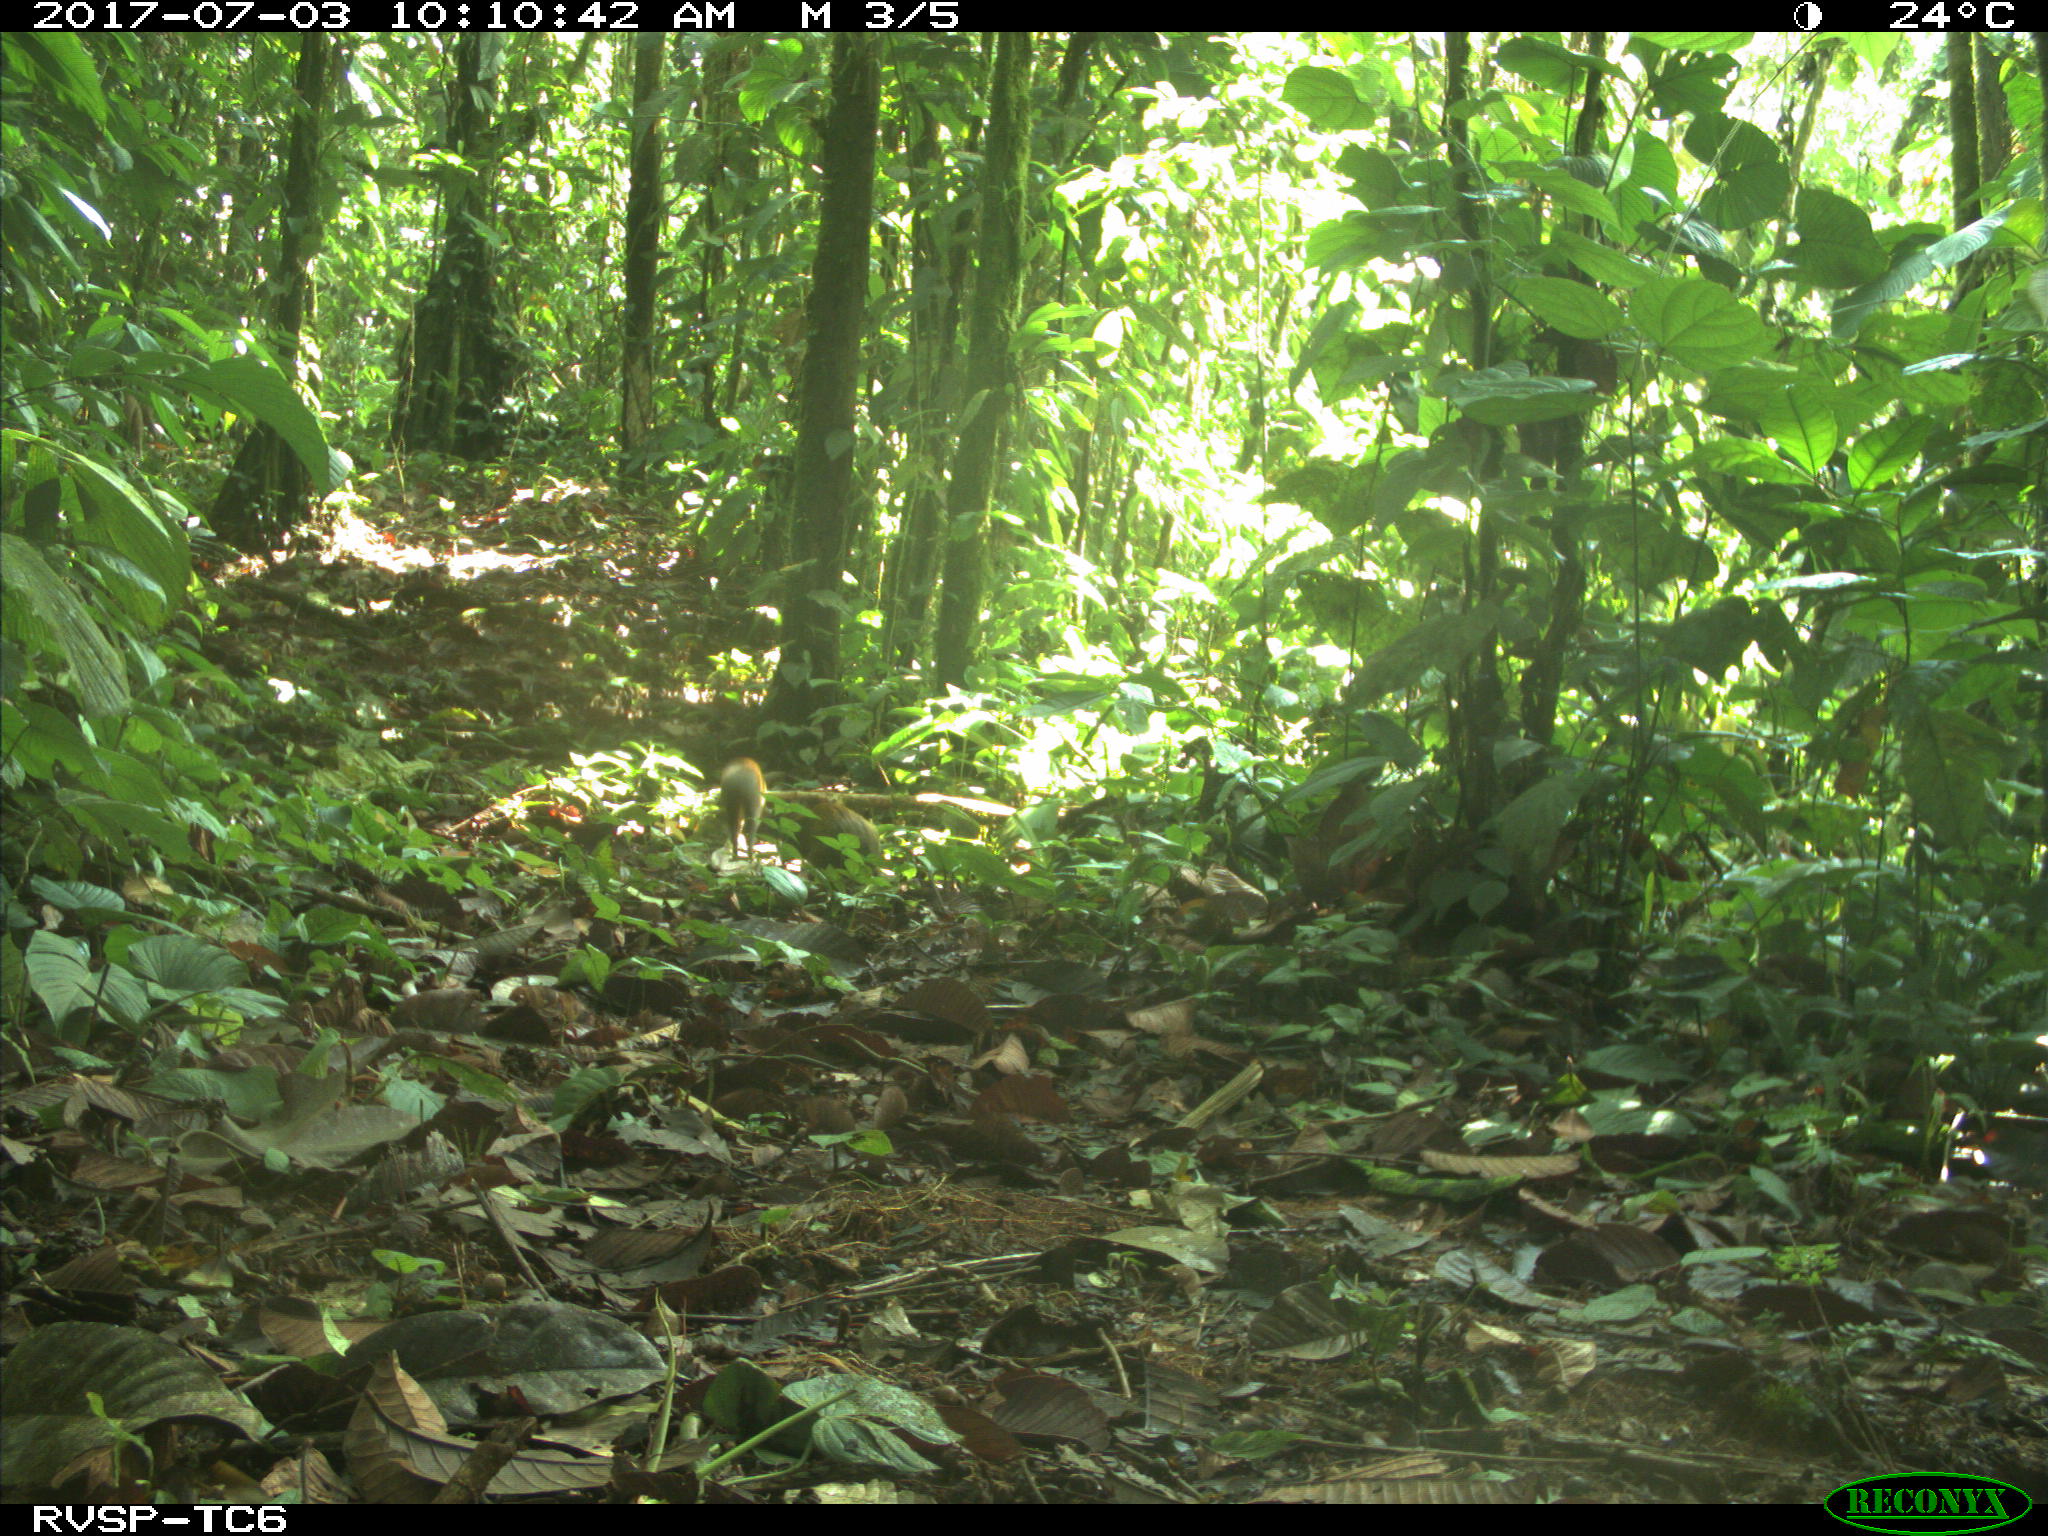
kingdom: Animalia
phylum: Chordata
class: Mammalia
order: Rodentia
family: Dasyproctidae
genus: Dasyprocta
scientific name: Dasyprocta punctata
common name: Central american agouti
